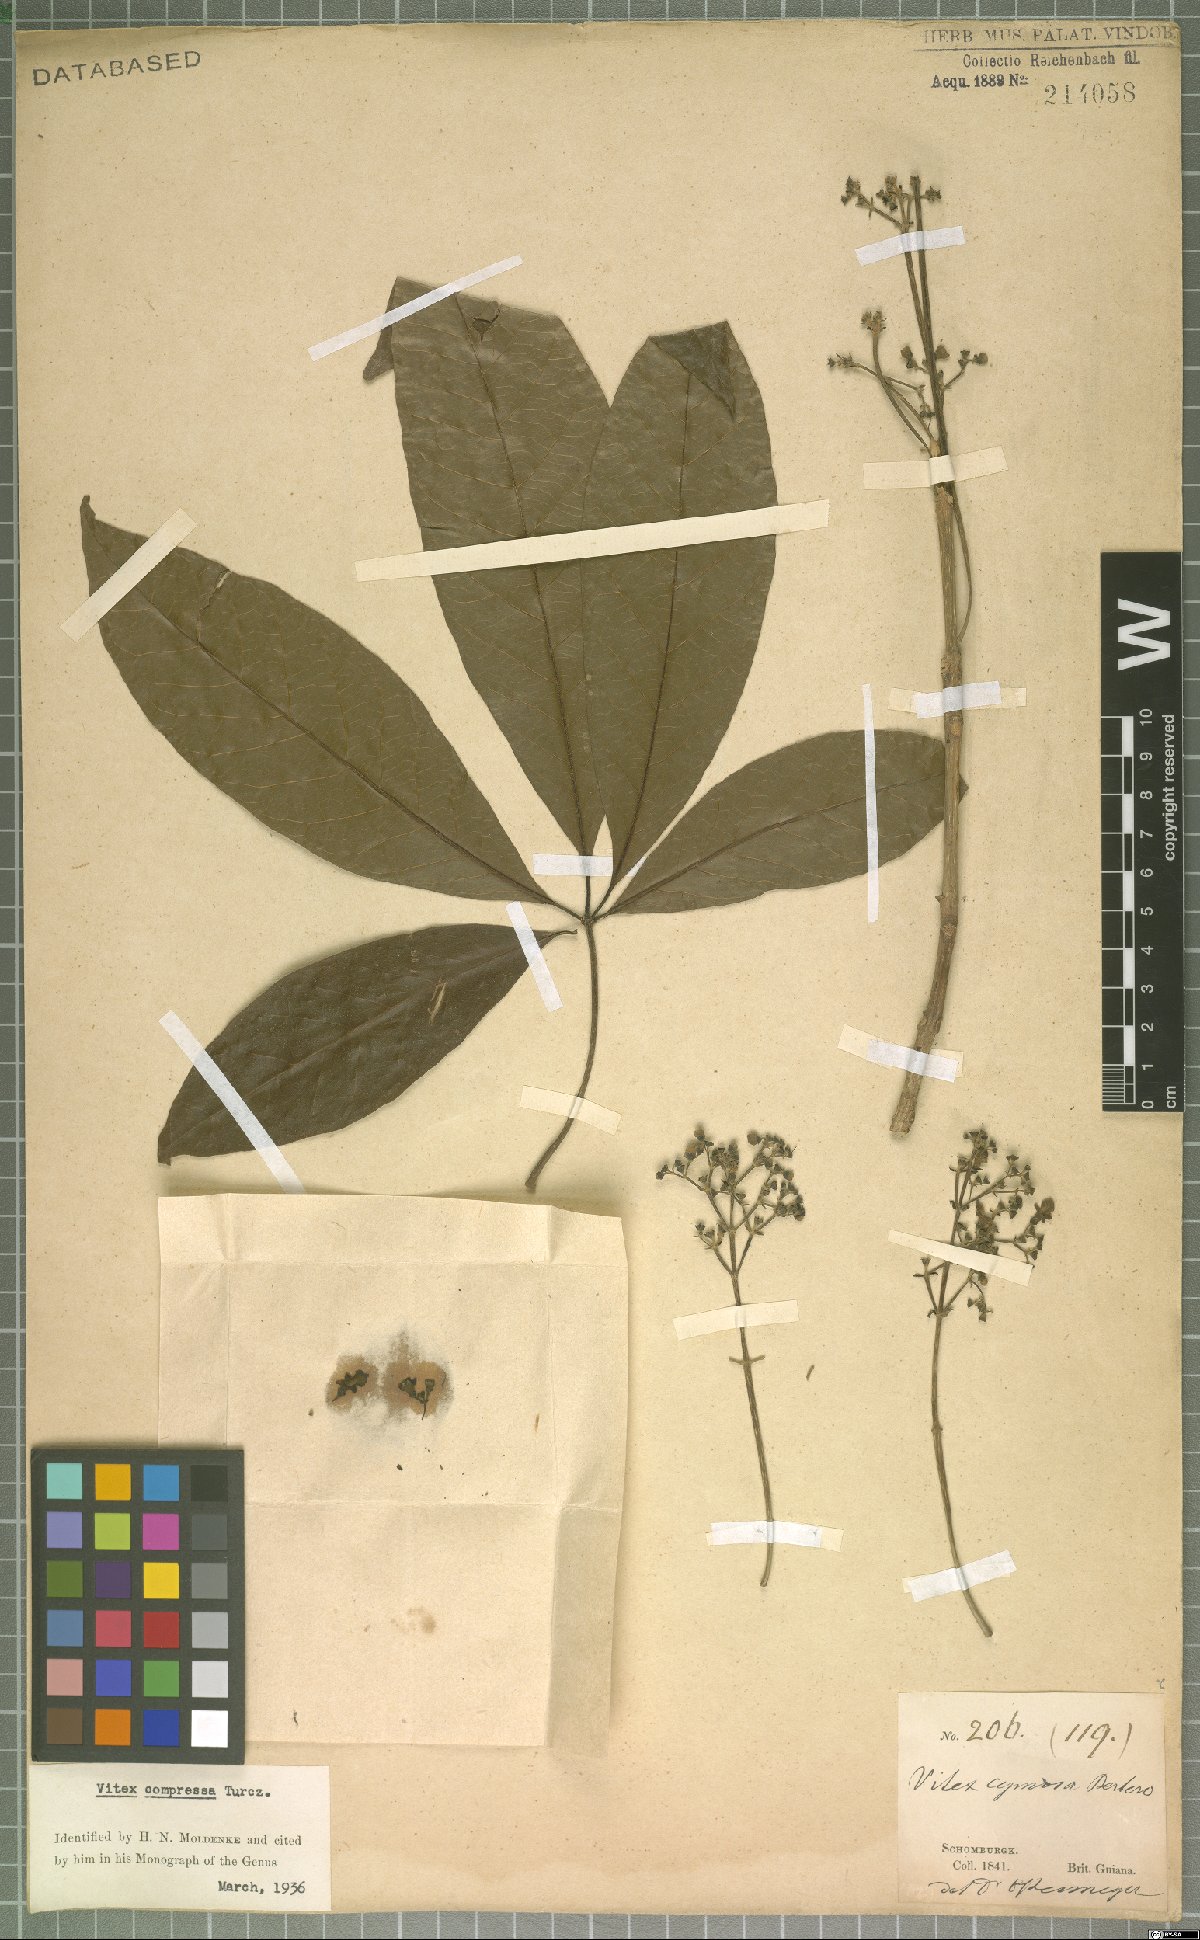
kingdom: Plantae
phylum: Tracheophyta
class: Magnoliopsida
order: Lamiales
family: Lamiaceae
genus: Vitex
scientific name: Vitex compressa
